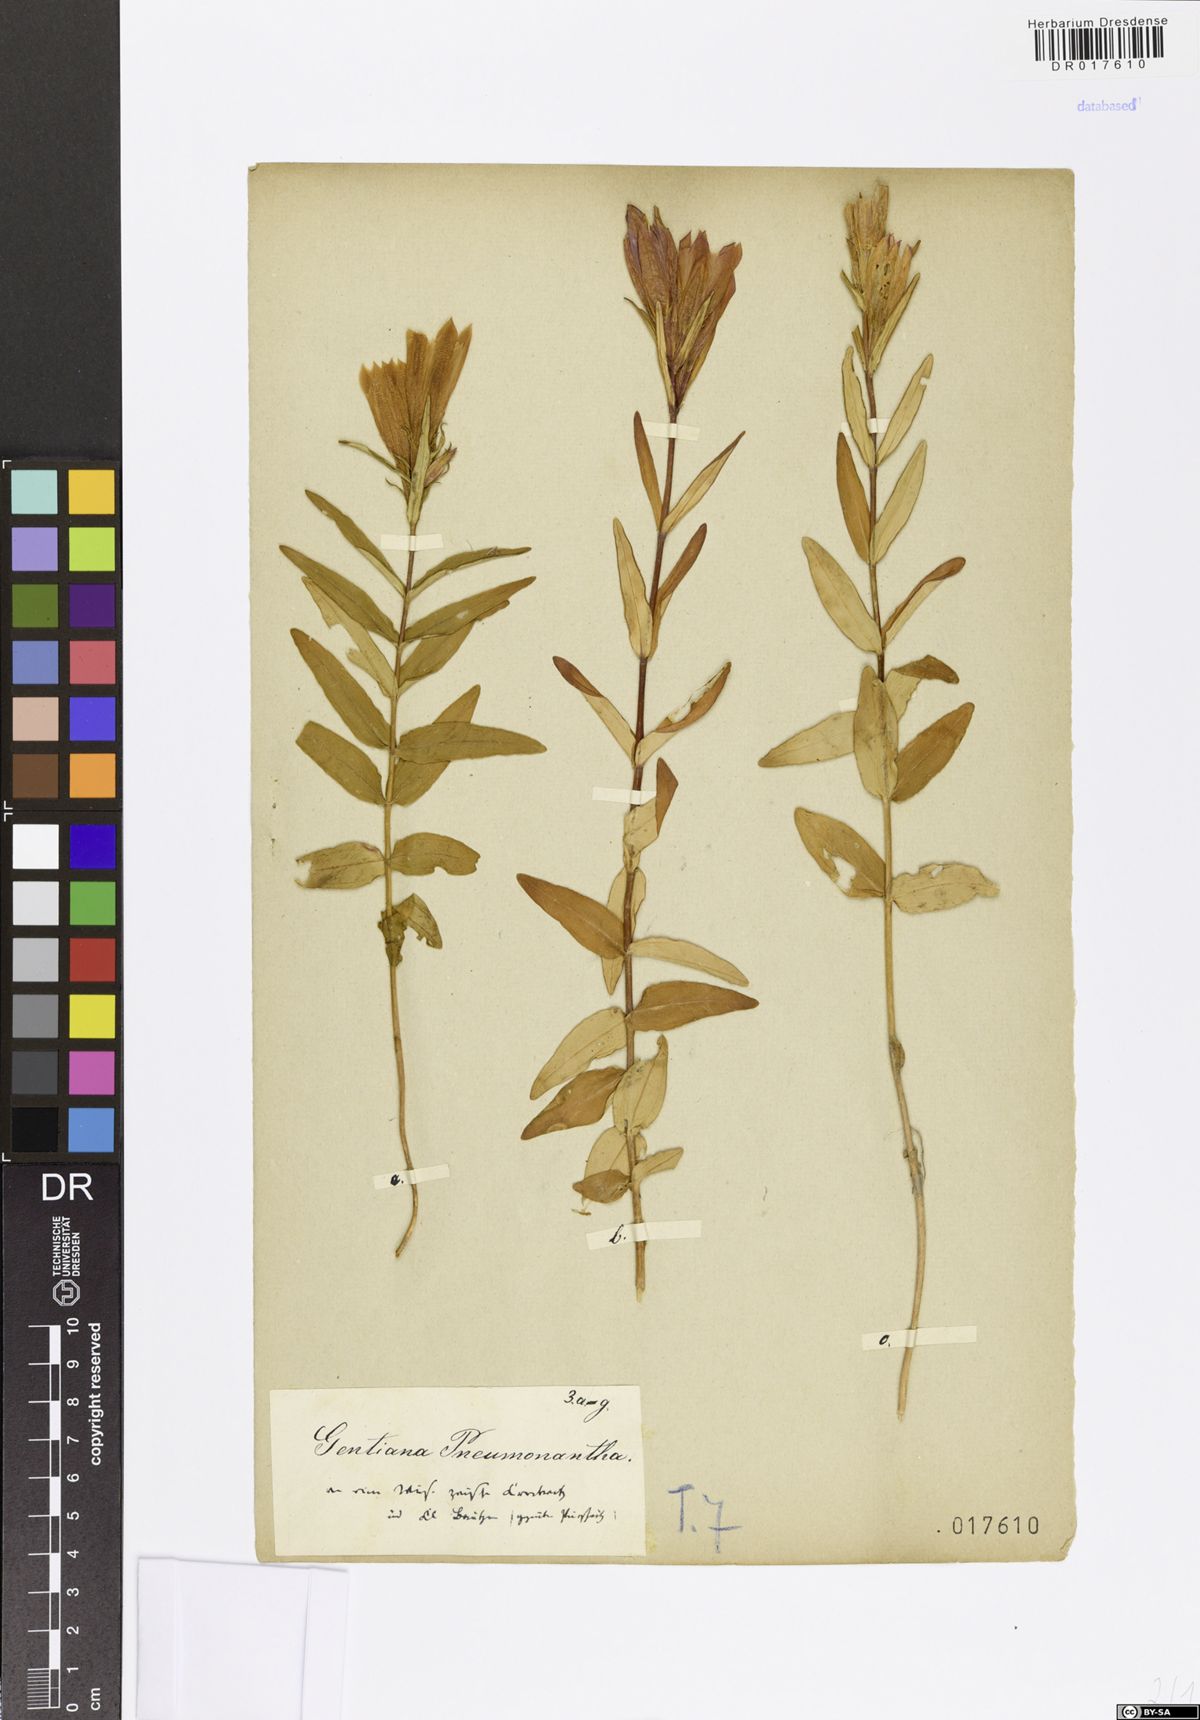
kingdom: Plantae
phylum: Tracheophyta
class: Magnoliopsida
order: Gentianales
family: Gentianaceae
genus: Gentiana
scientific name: Gentiana pneumonanthe
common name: Marsh gentian
